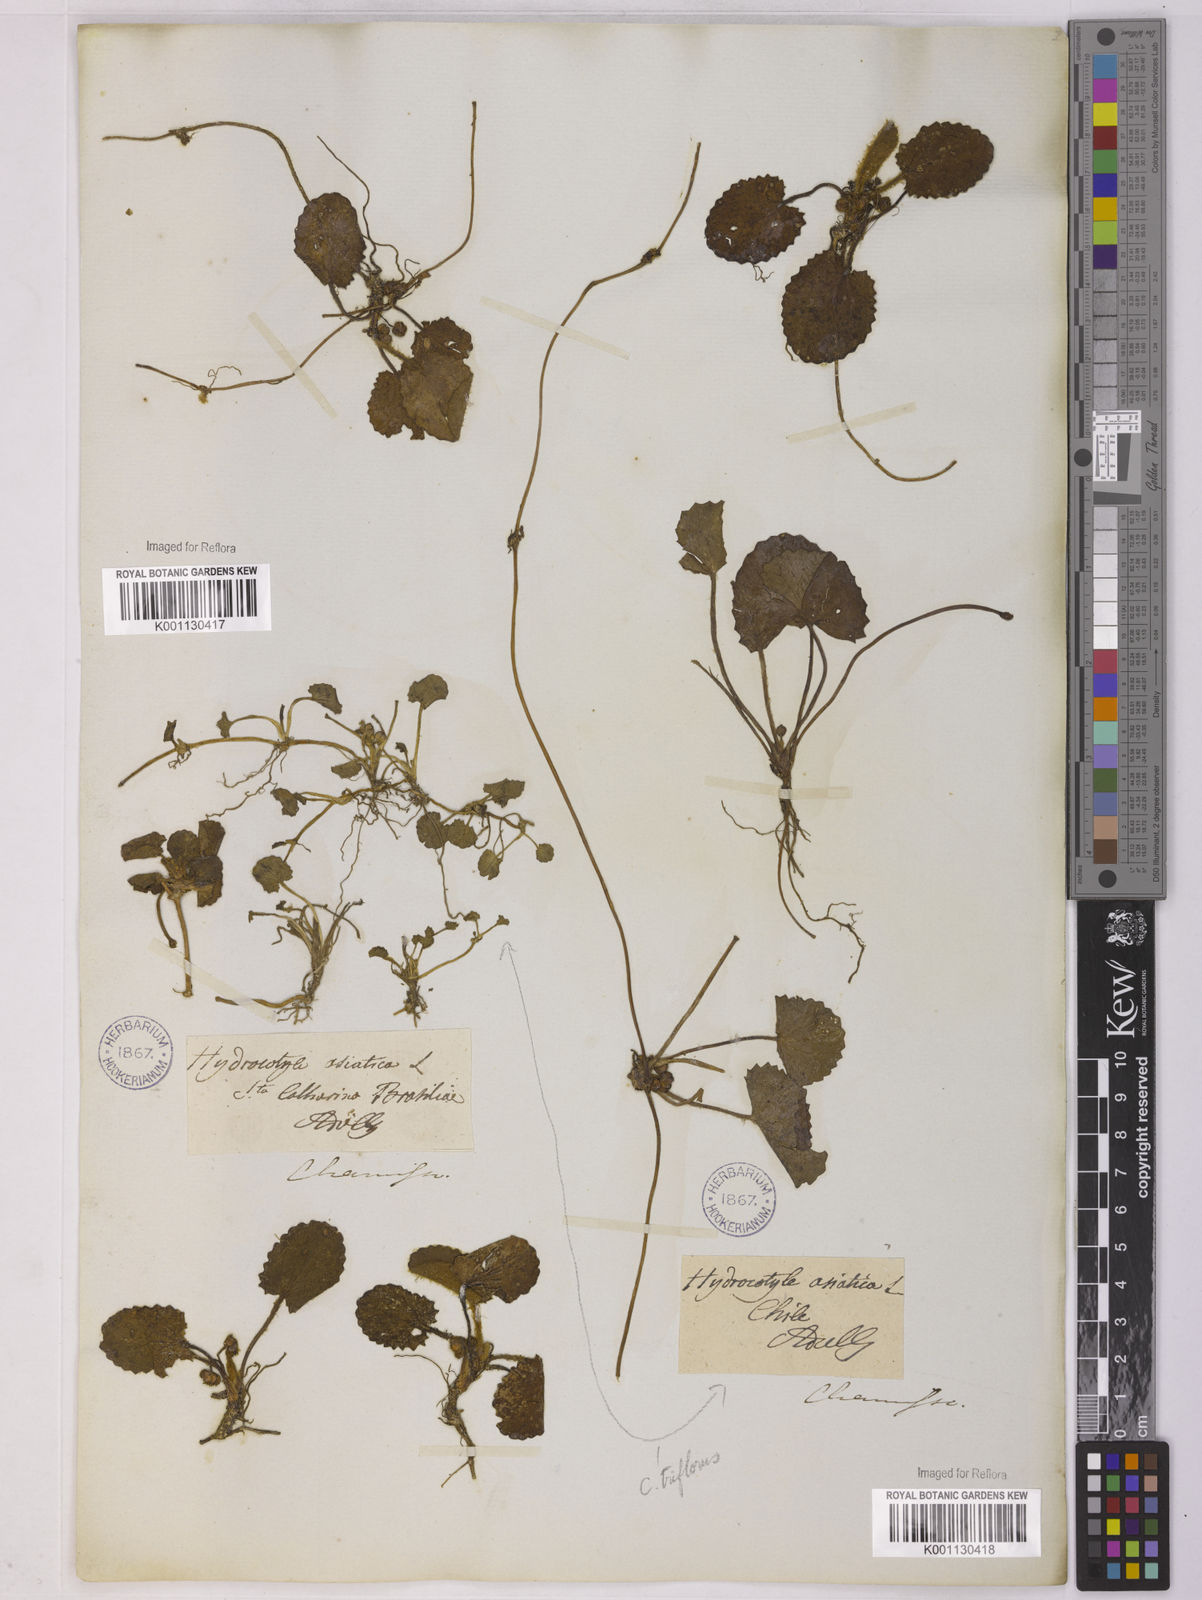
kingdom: Plantae
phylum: Tracheophyta
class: Magnoliopsida
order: Apiales
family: Apiaceae
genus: Centella
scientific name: Centella erecta
